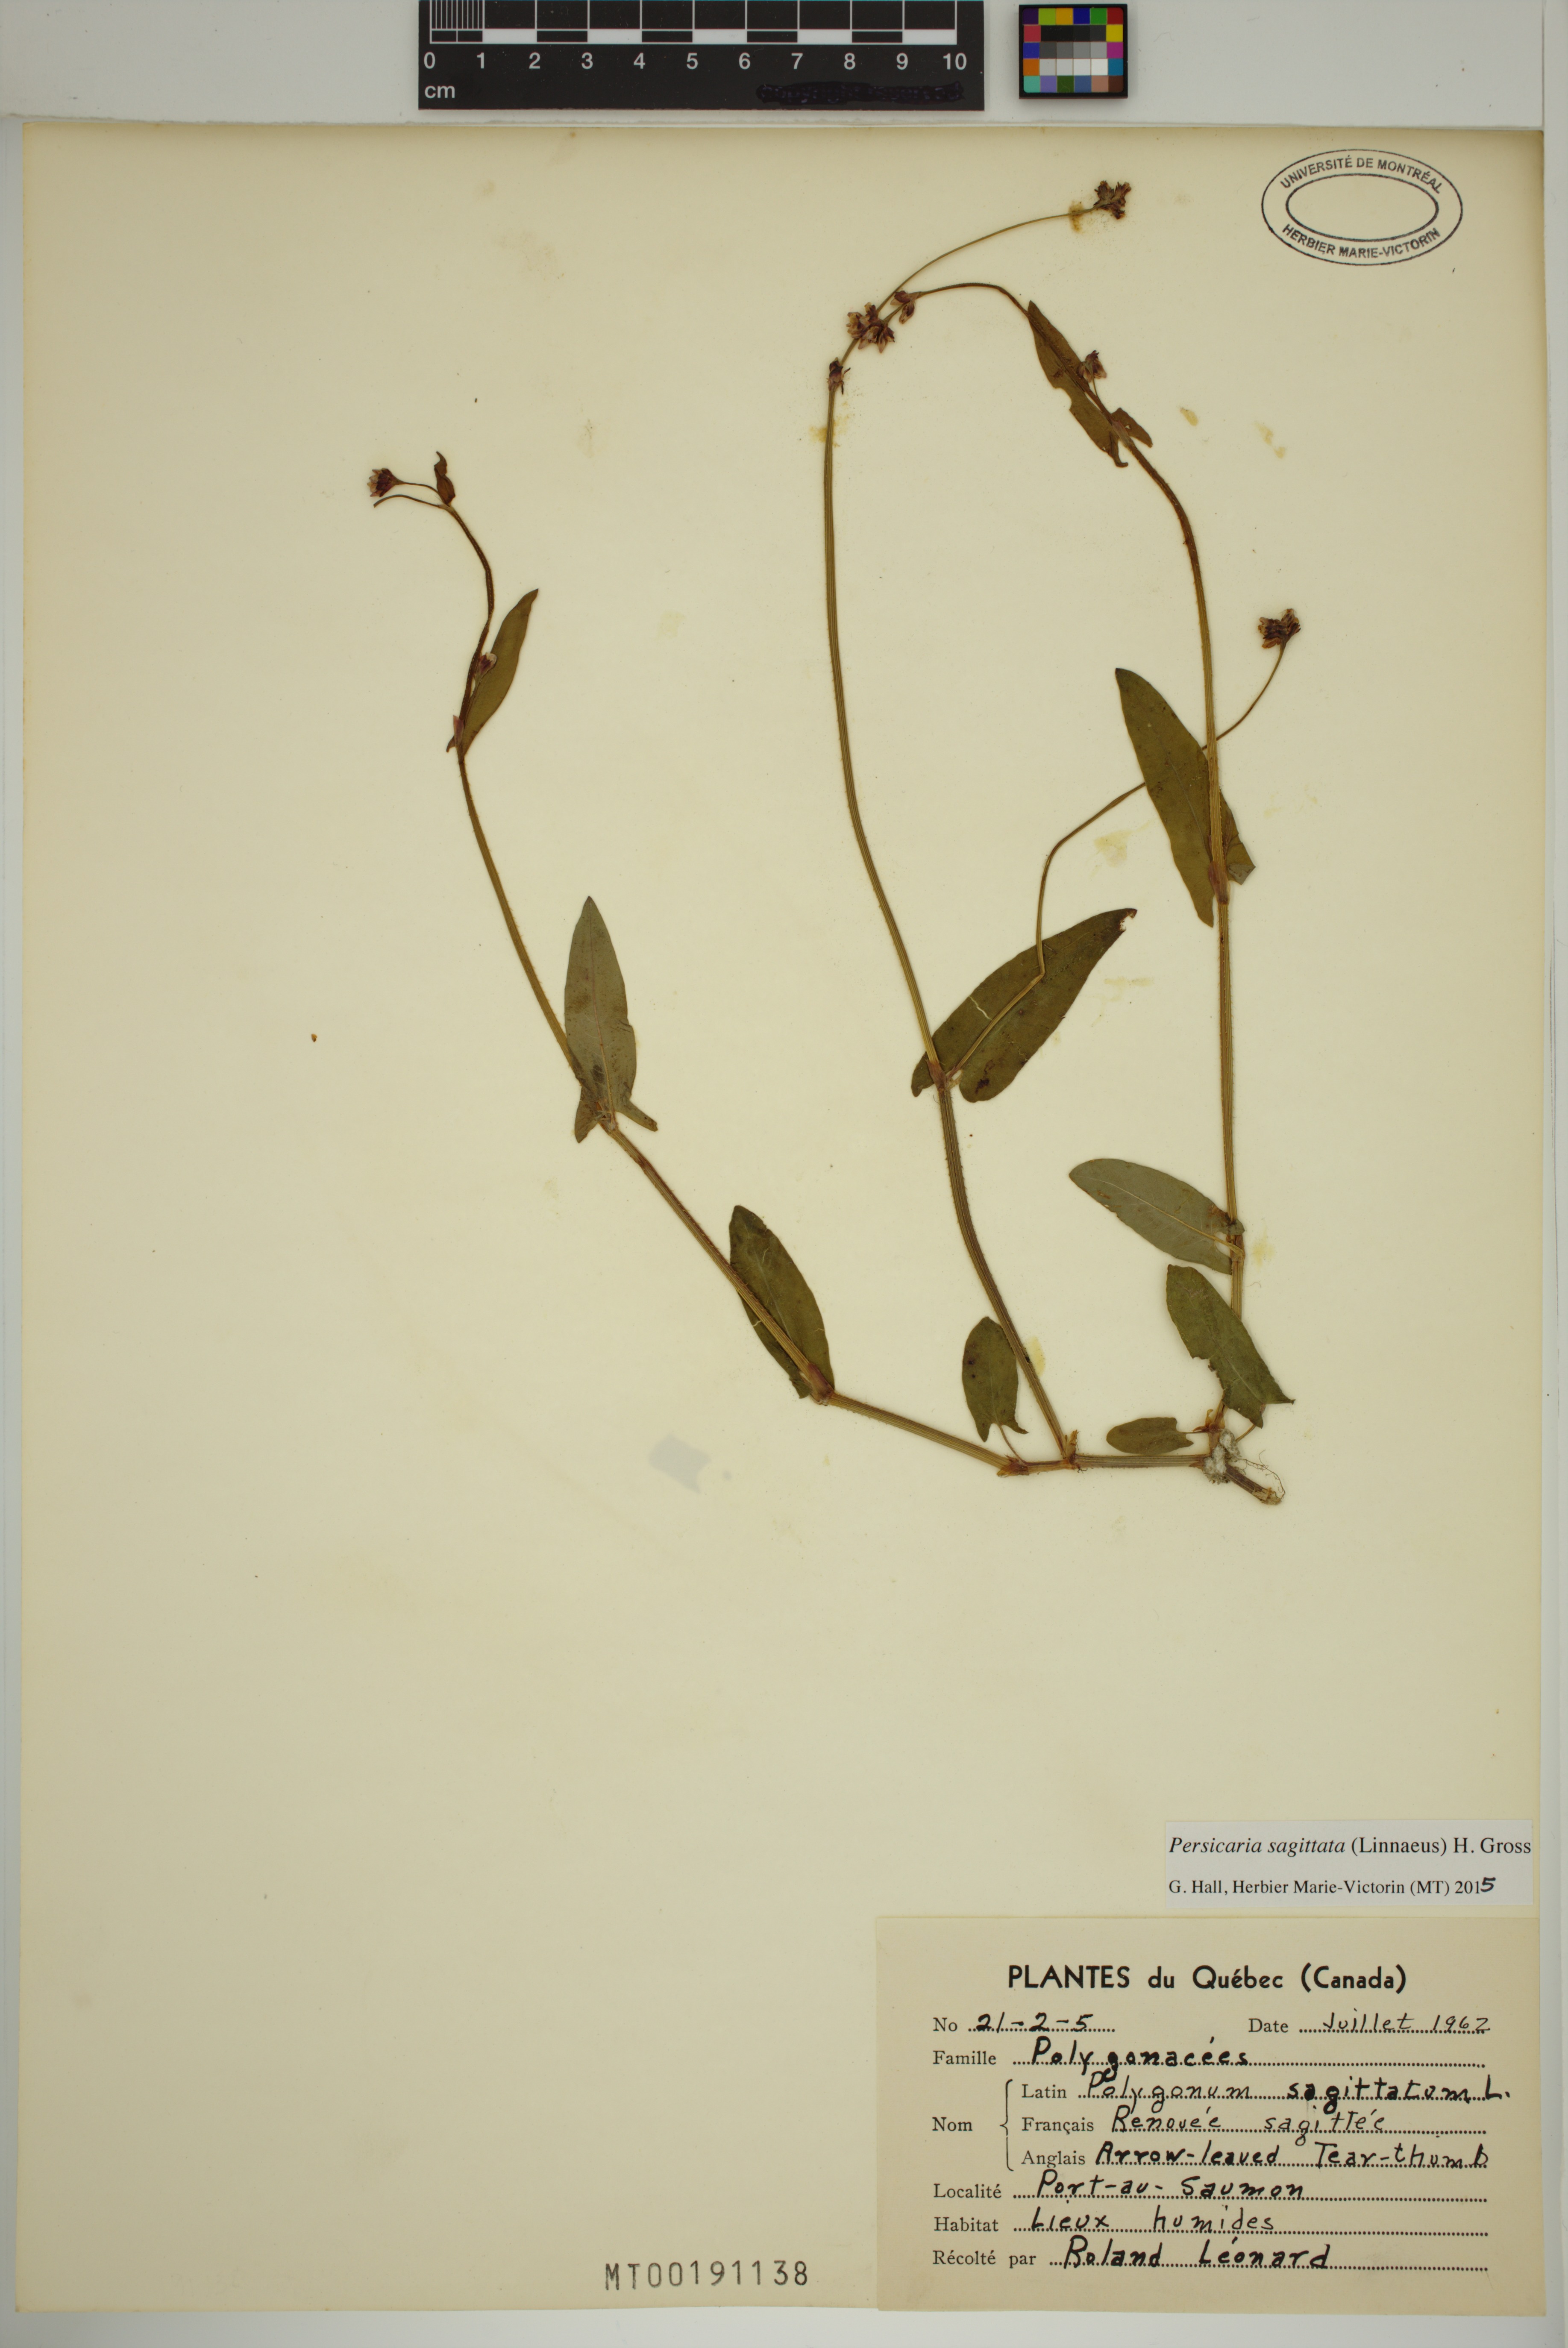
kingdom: Plantae
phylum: Tracheophyta
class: Magnoliopsida
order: Caryophyllales
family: Polygonaceae
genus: Persicaria
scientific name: Persicaria sagittata
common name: American tearthumb
